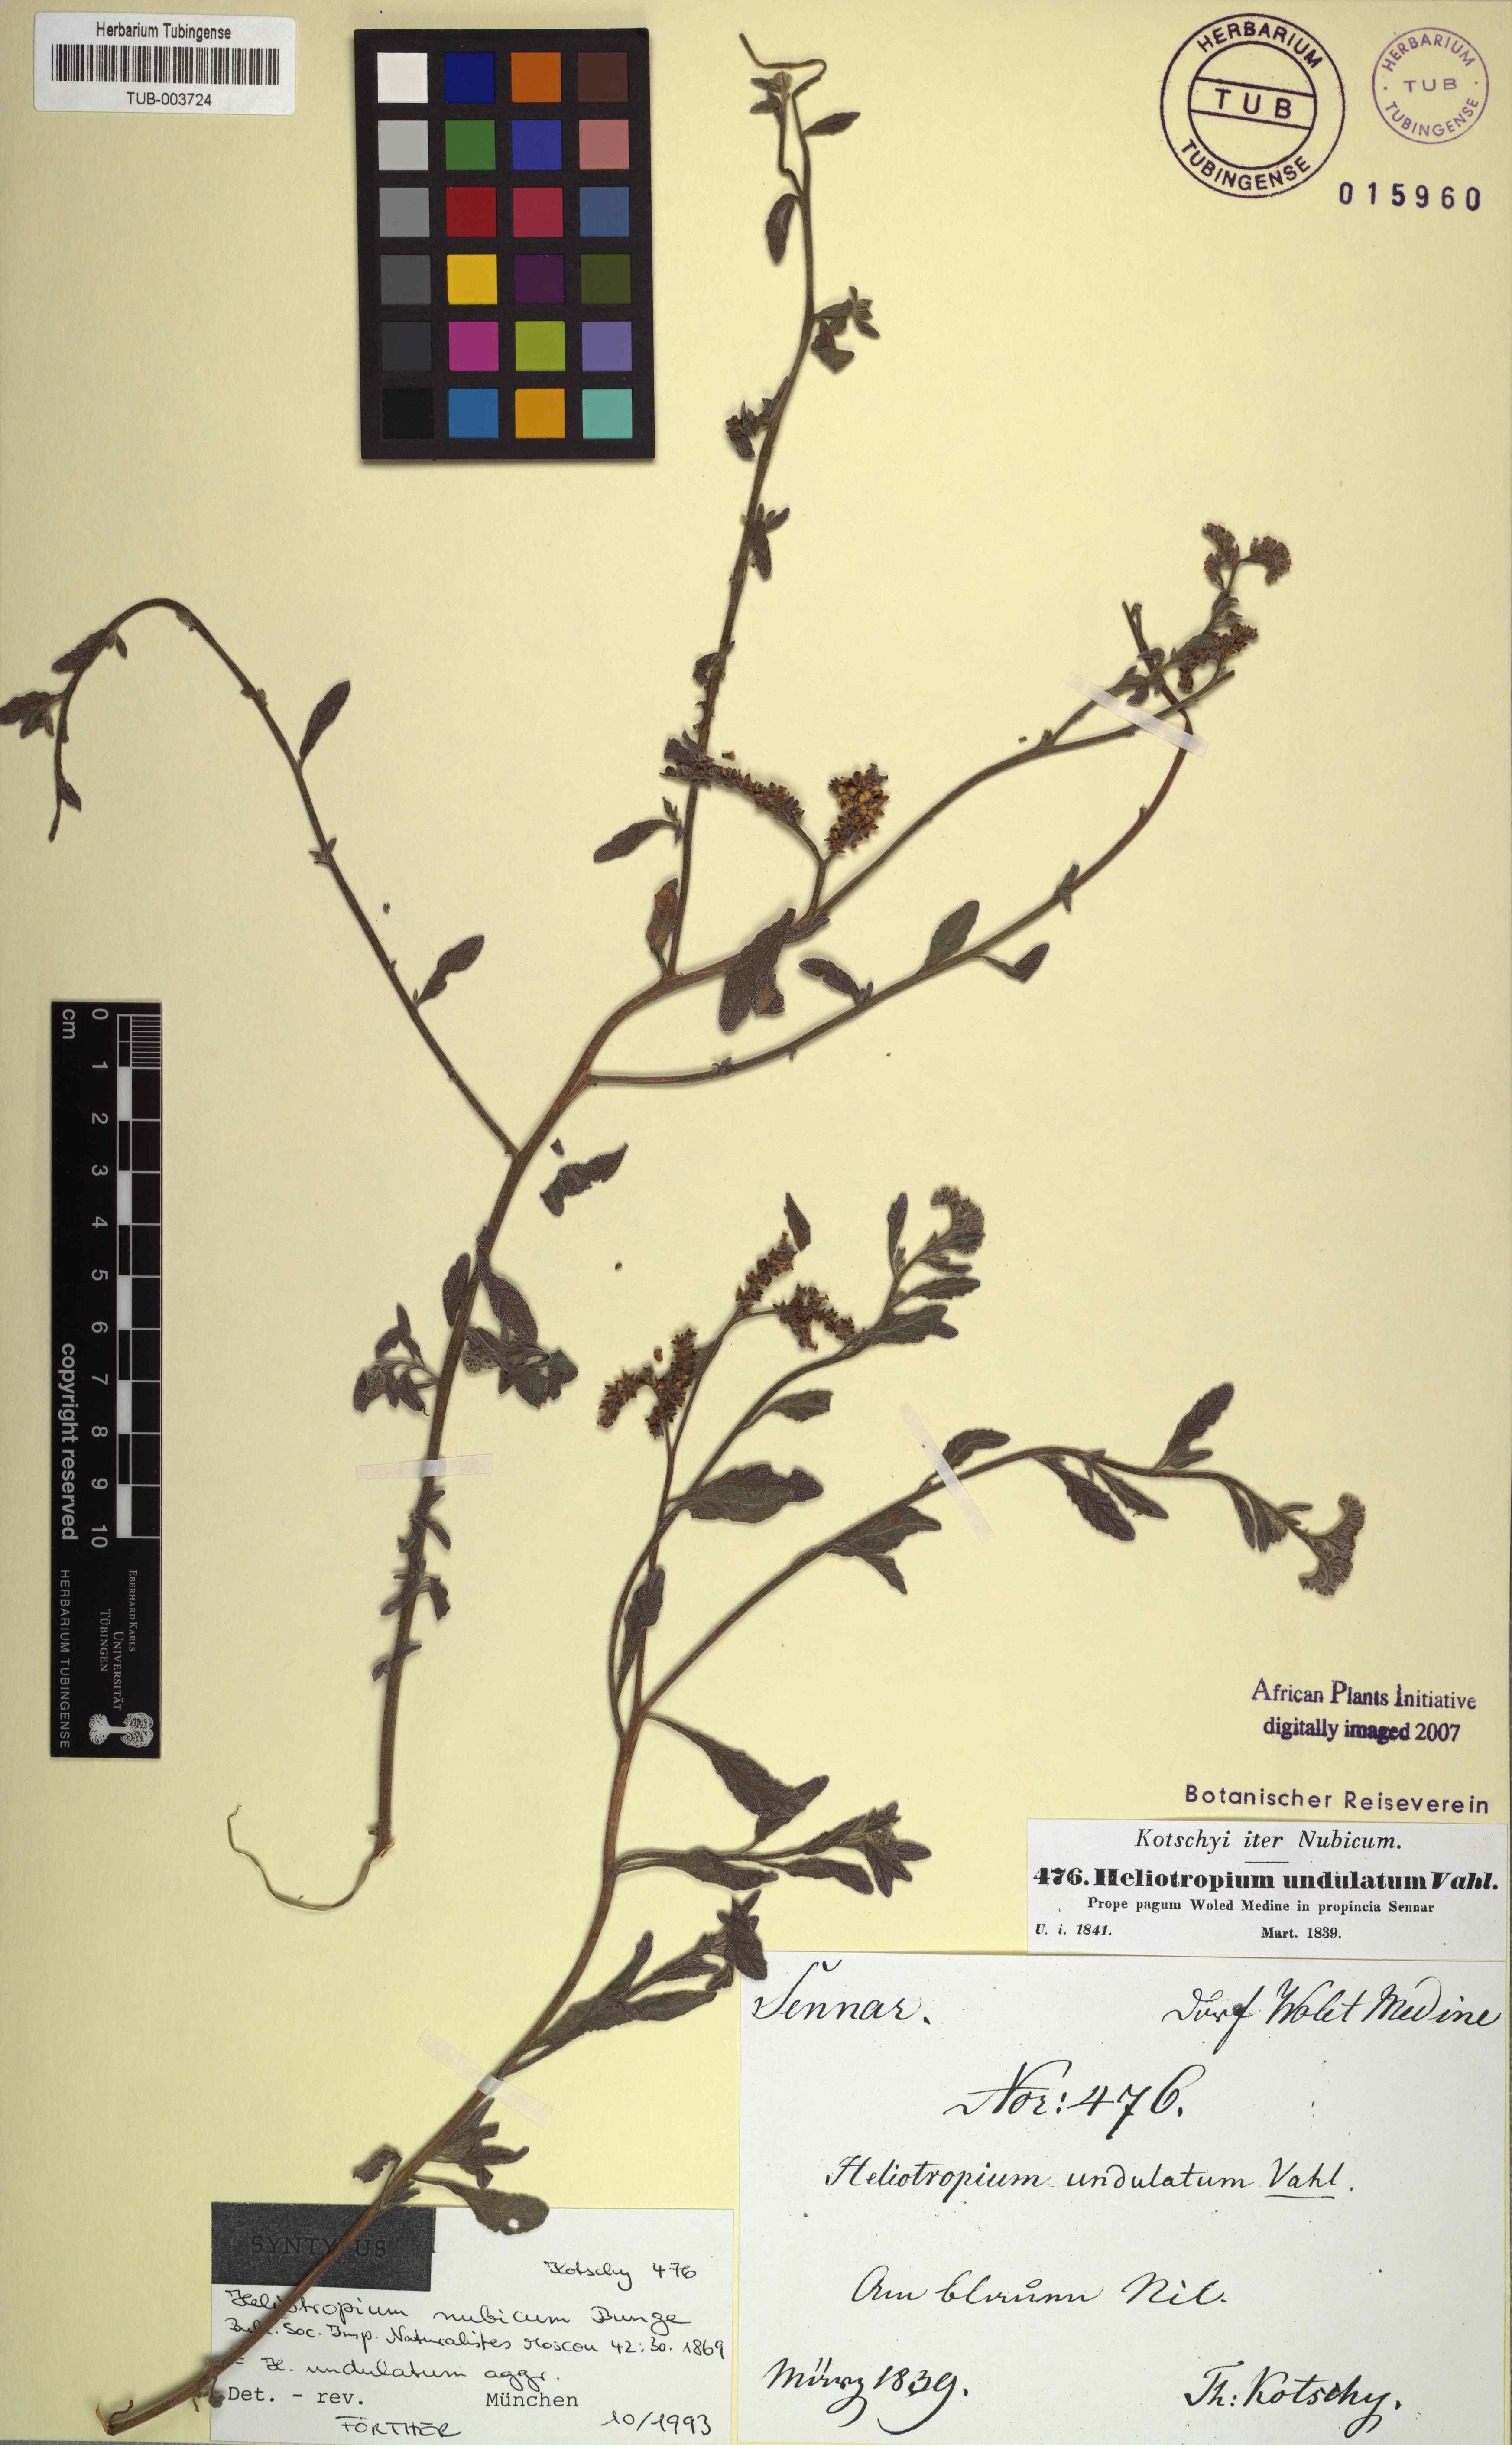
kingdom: Plantae
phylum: Tracheophyta
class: Magnoliopsida
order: Boraginales
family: Heliotropiaceae
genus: Heliotropium
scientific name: Heliotropium bacciferum
